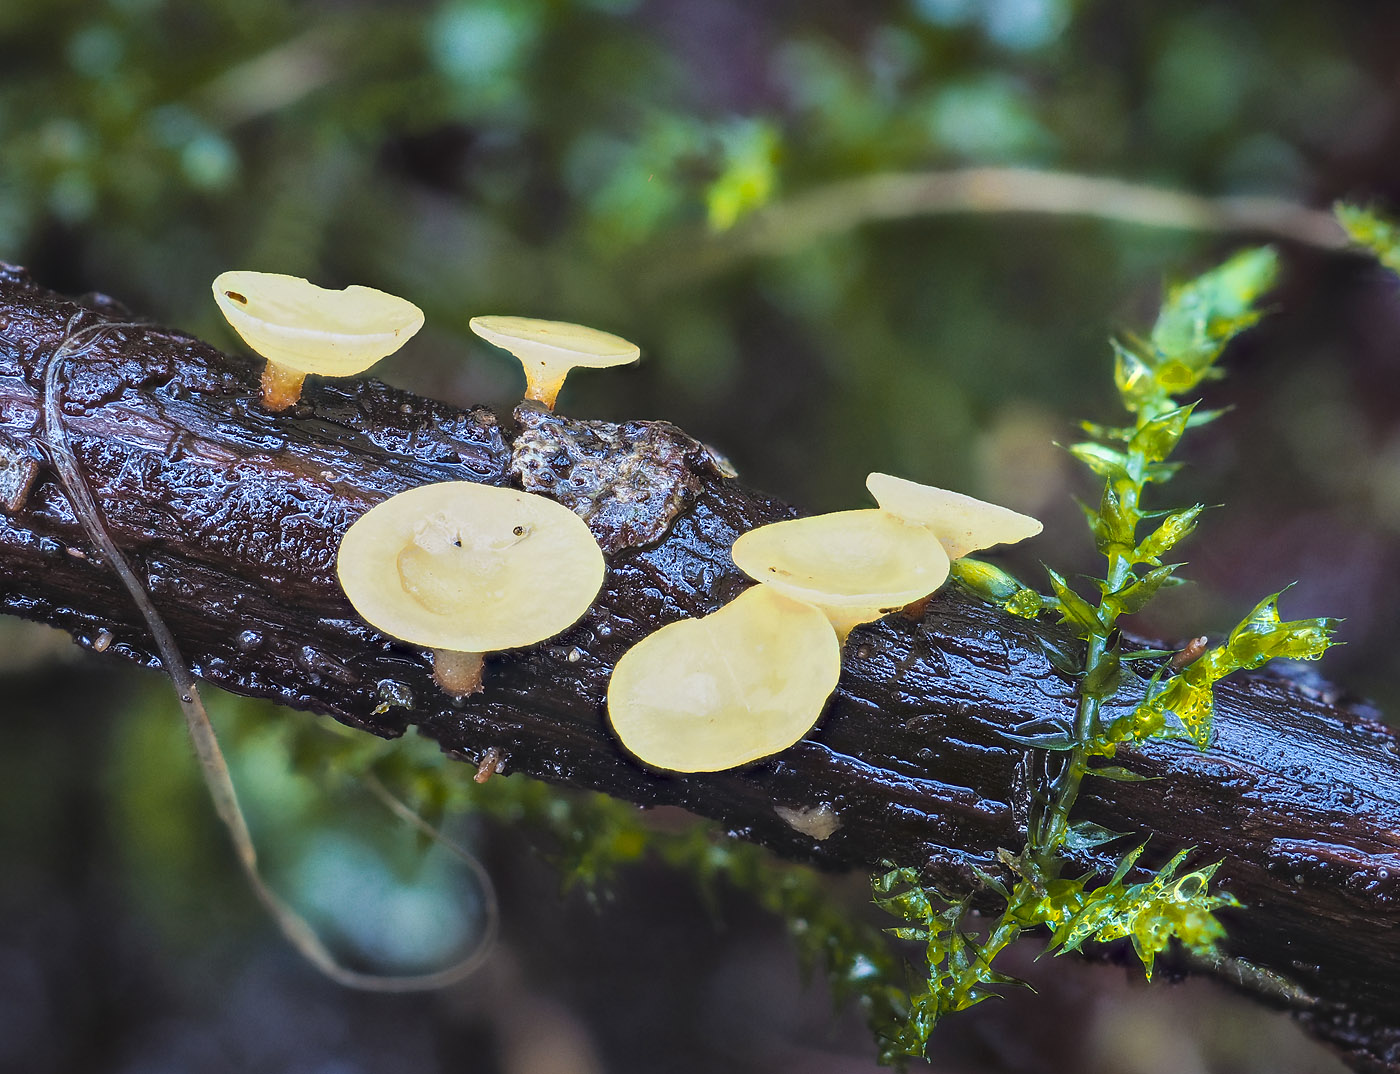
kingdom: Fungi
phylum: Ascomycota
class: Leotiomycetes
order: Helotiales
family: Helotiaceae
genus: Hymenoscyphus
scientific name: Hymenoscyphus calyculus
